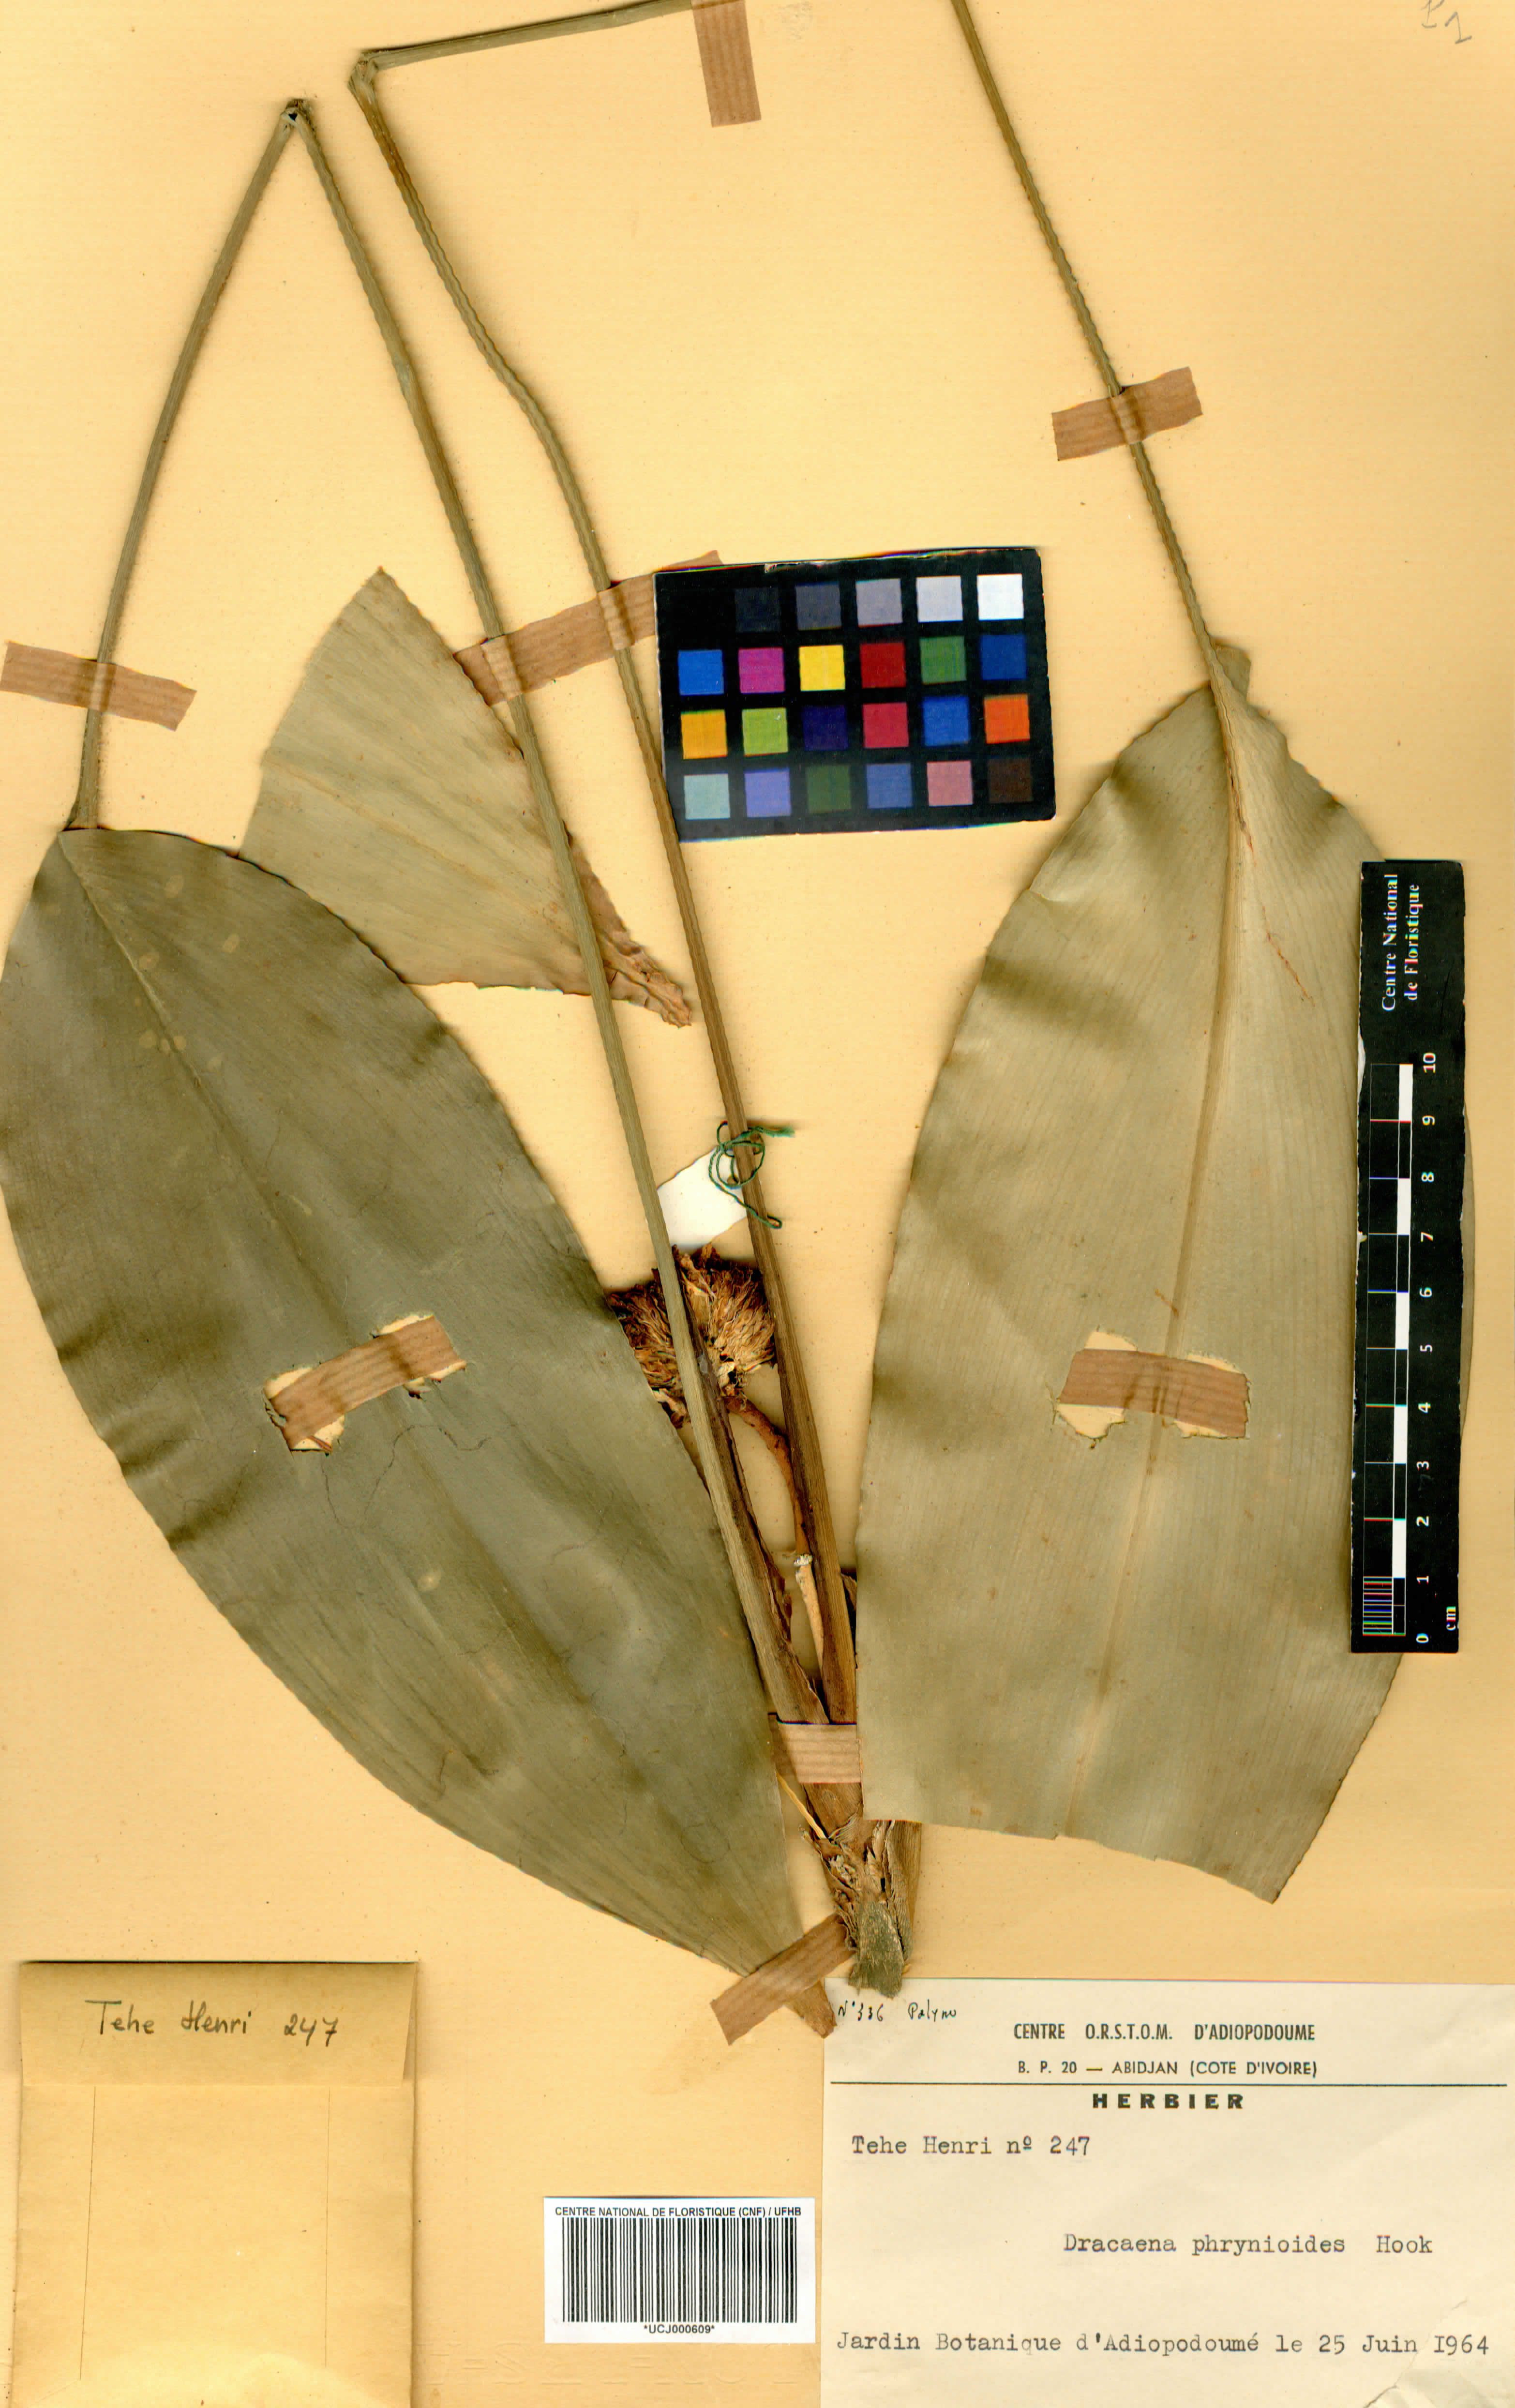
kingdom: Plantae
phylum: Tracheophyta
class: Liliopsida
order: Asparagales
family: Asparagaceae
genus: Dracaena
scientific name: Dracaena phrynioides
